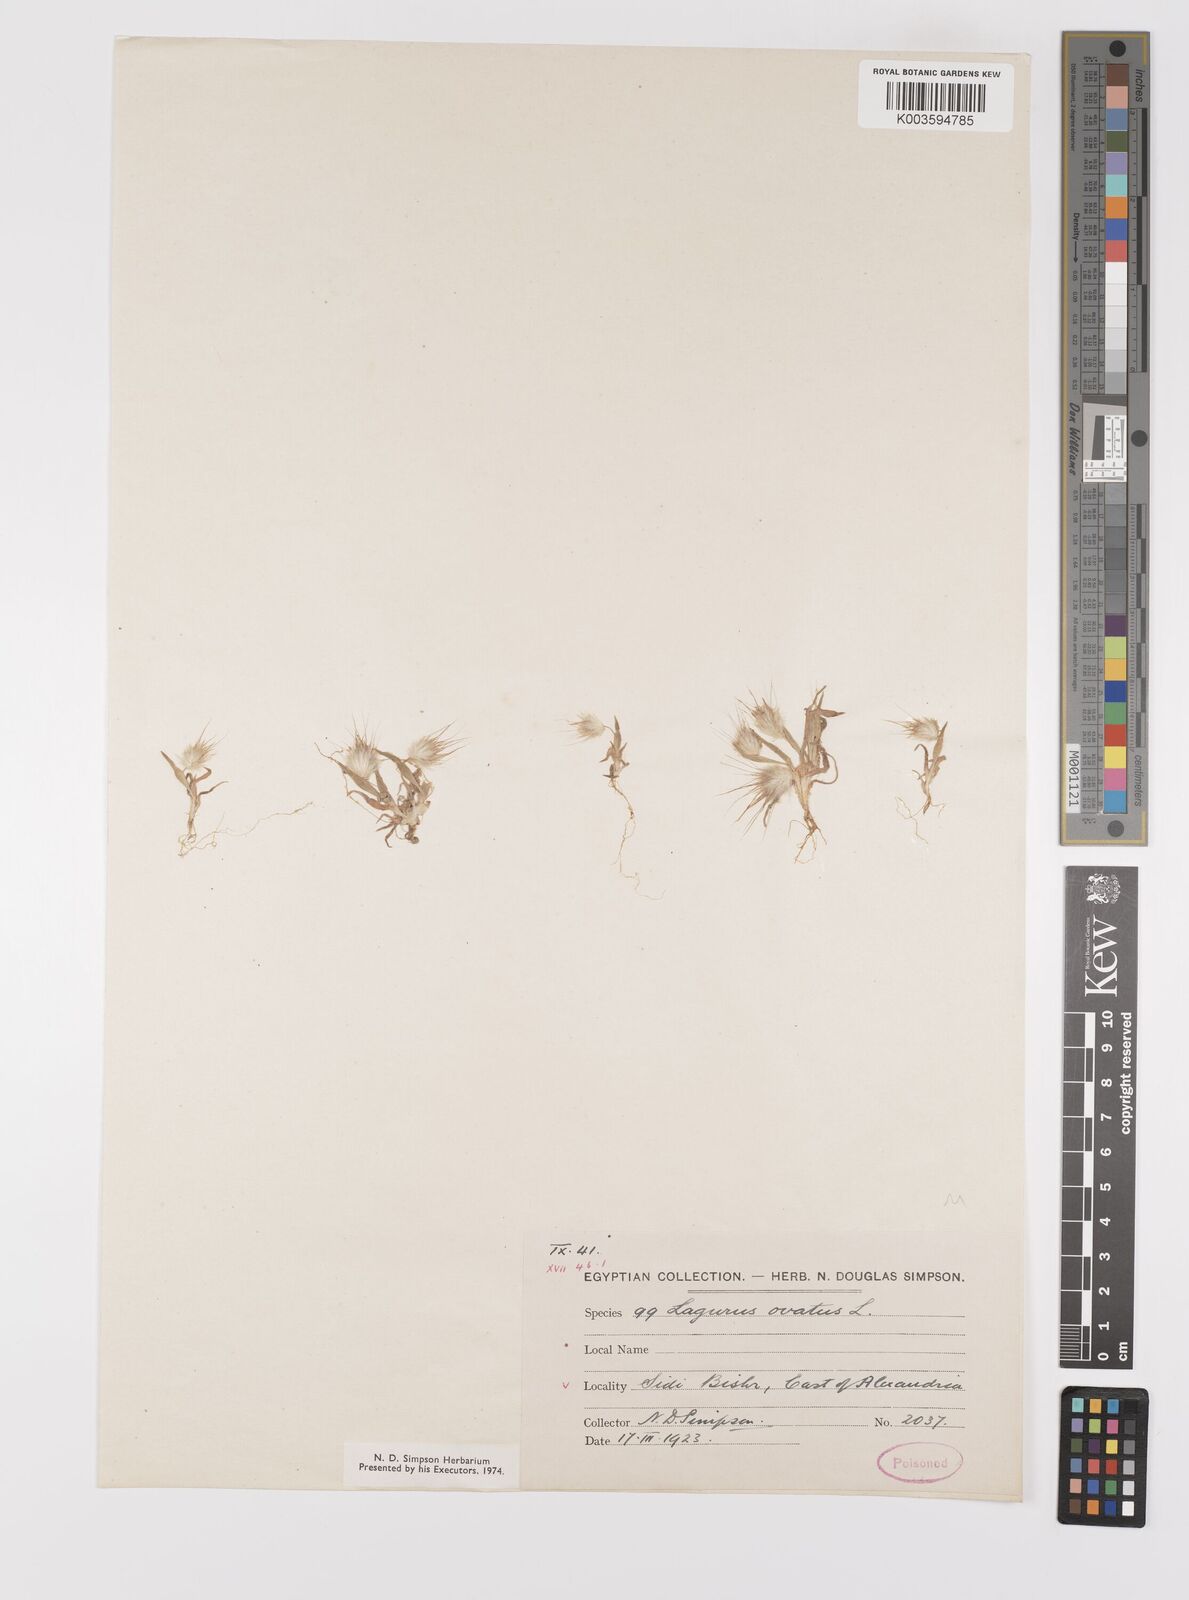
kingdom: Plantae
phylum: Tracheophyta
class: Liliopsida
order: Poales
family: Poaceae
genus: Lagurus
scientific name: Lagurus ovatus
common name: Hare's-tail
